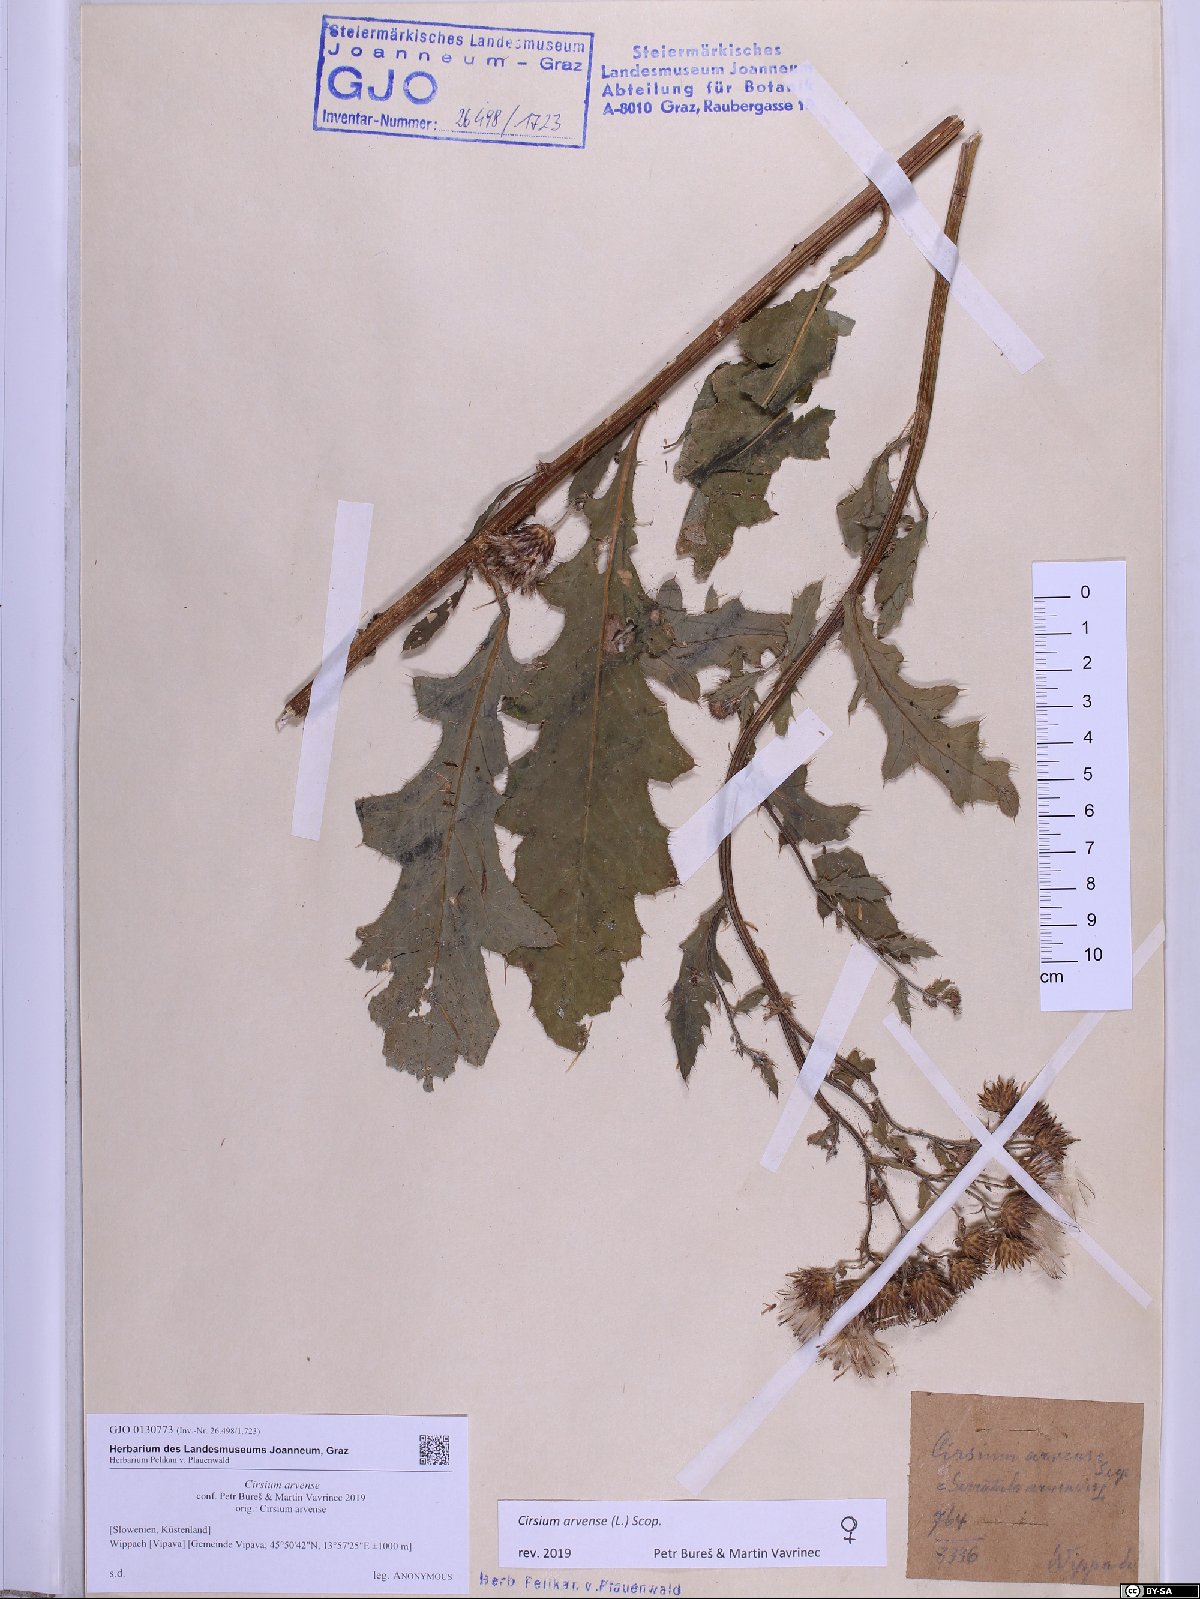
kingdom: Plantae
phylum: Tracheophyta
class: Magnoliopsida
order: Asterales
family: Asteraceae
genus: Cirsium
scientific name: Cirsium arvense
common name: Creeping thistle
